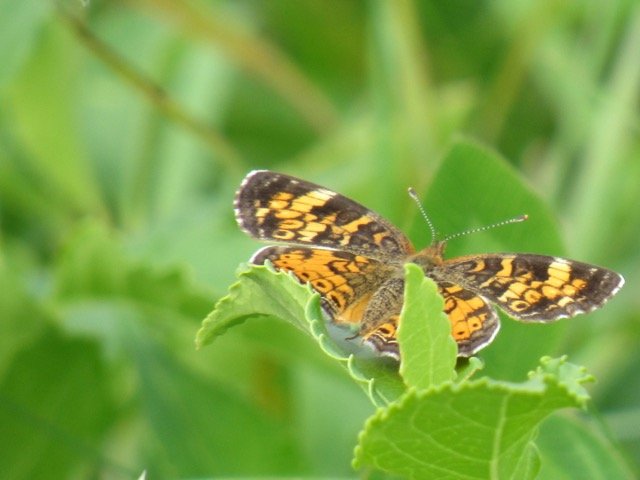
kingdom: Animalia
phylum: Arthropoda
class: Insecta
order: Lepidoptera
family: Nymphalidae
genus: Phyciodes
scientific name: Phyciodes tharos
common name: Pearl Crescent
